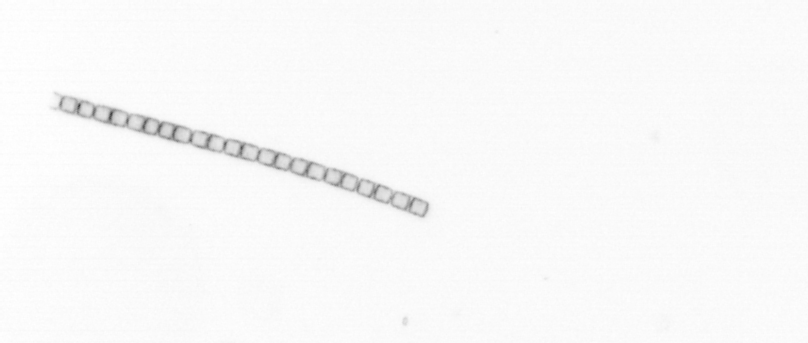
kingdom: Chromista
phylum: Ochrophyta
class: Bacillariophyceae
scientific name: Bacillariophyceae
